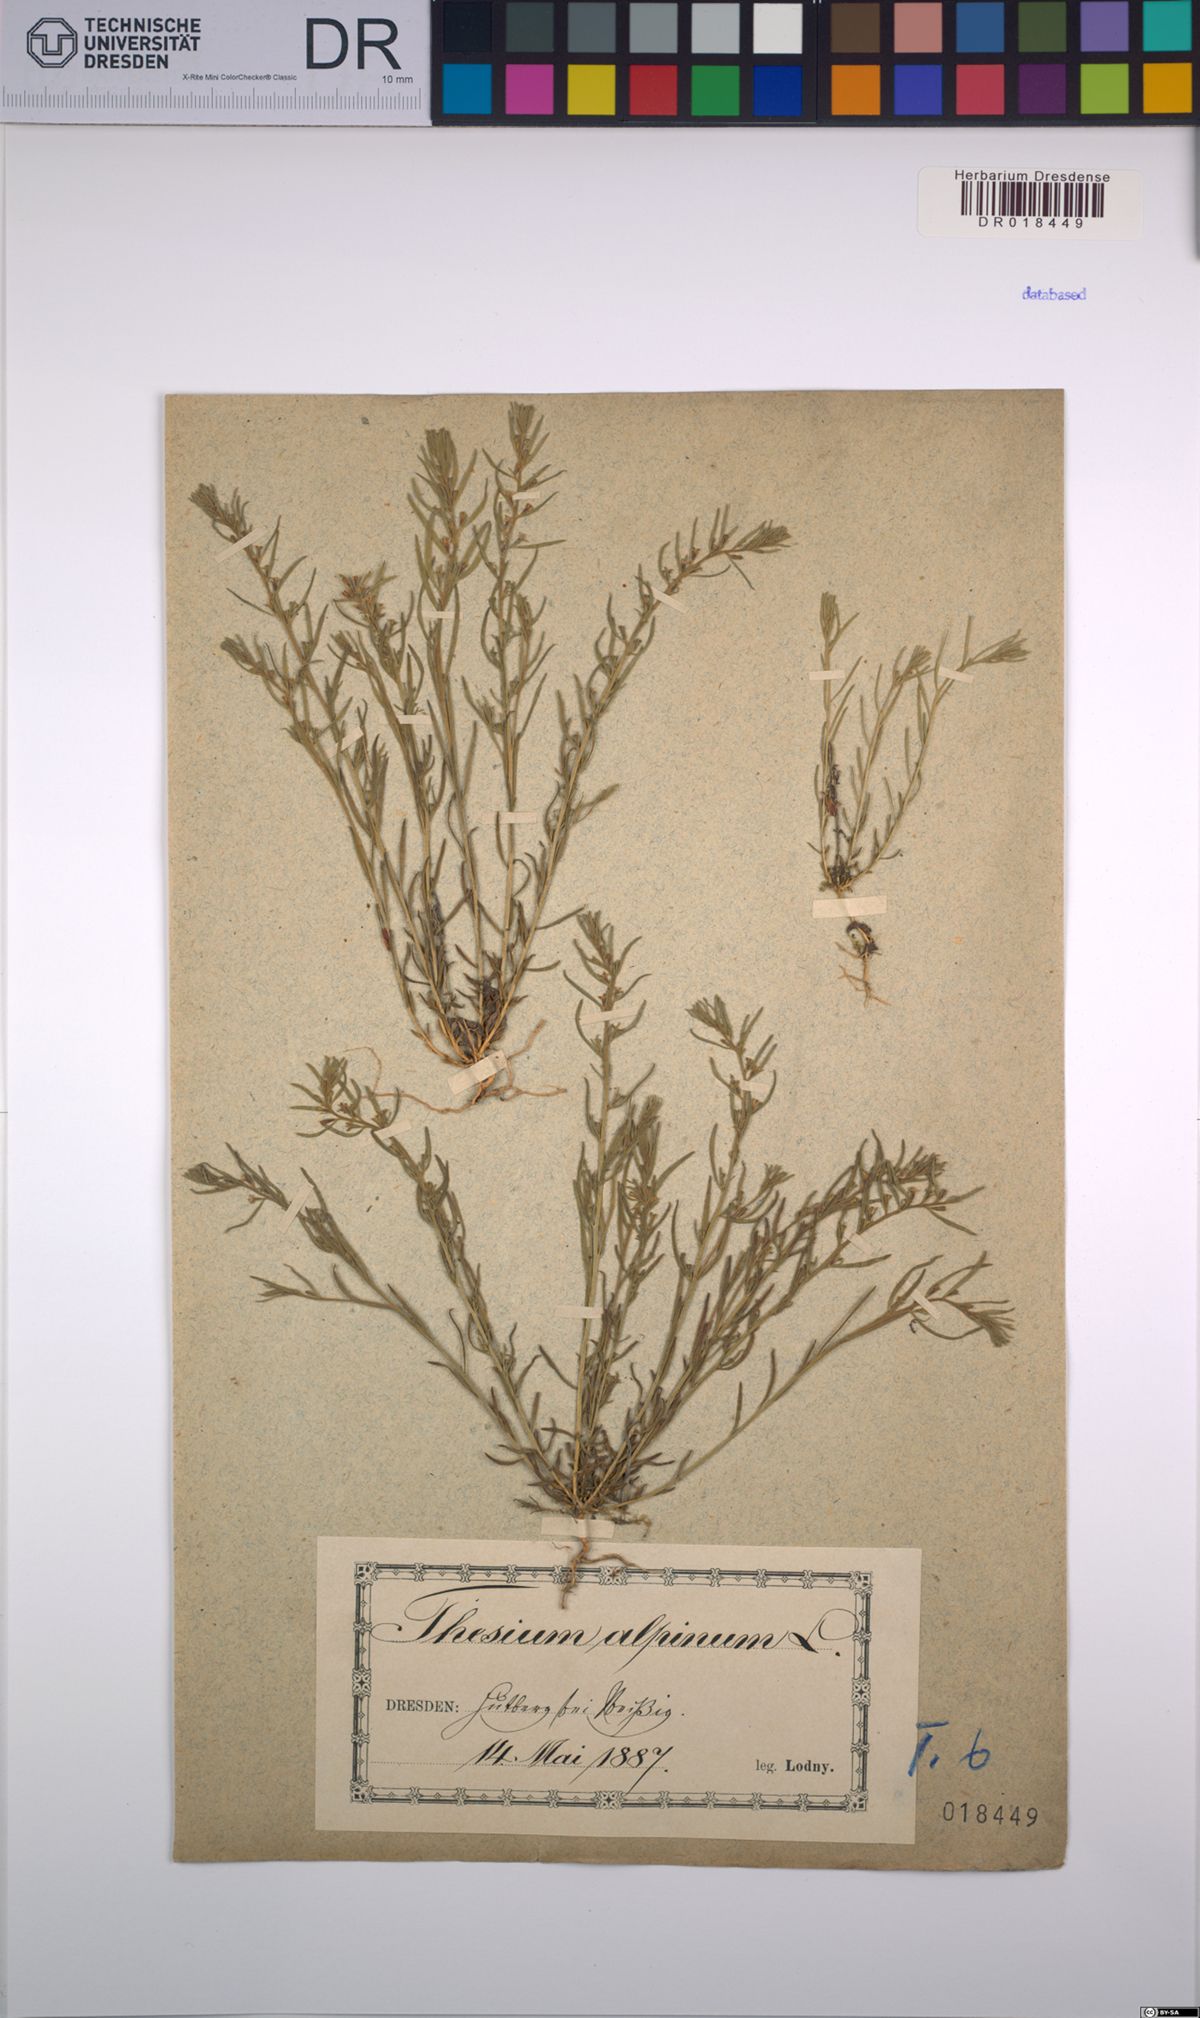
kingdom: Plantae
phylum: Tracheophyta
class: Magnoliopsida
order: Santalales
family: Thesiaceae
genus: Thesium
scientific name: Thesium alpinum
